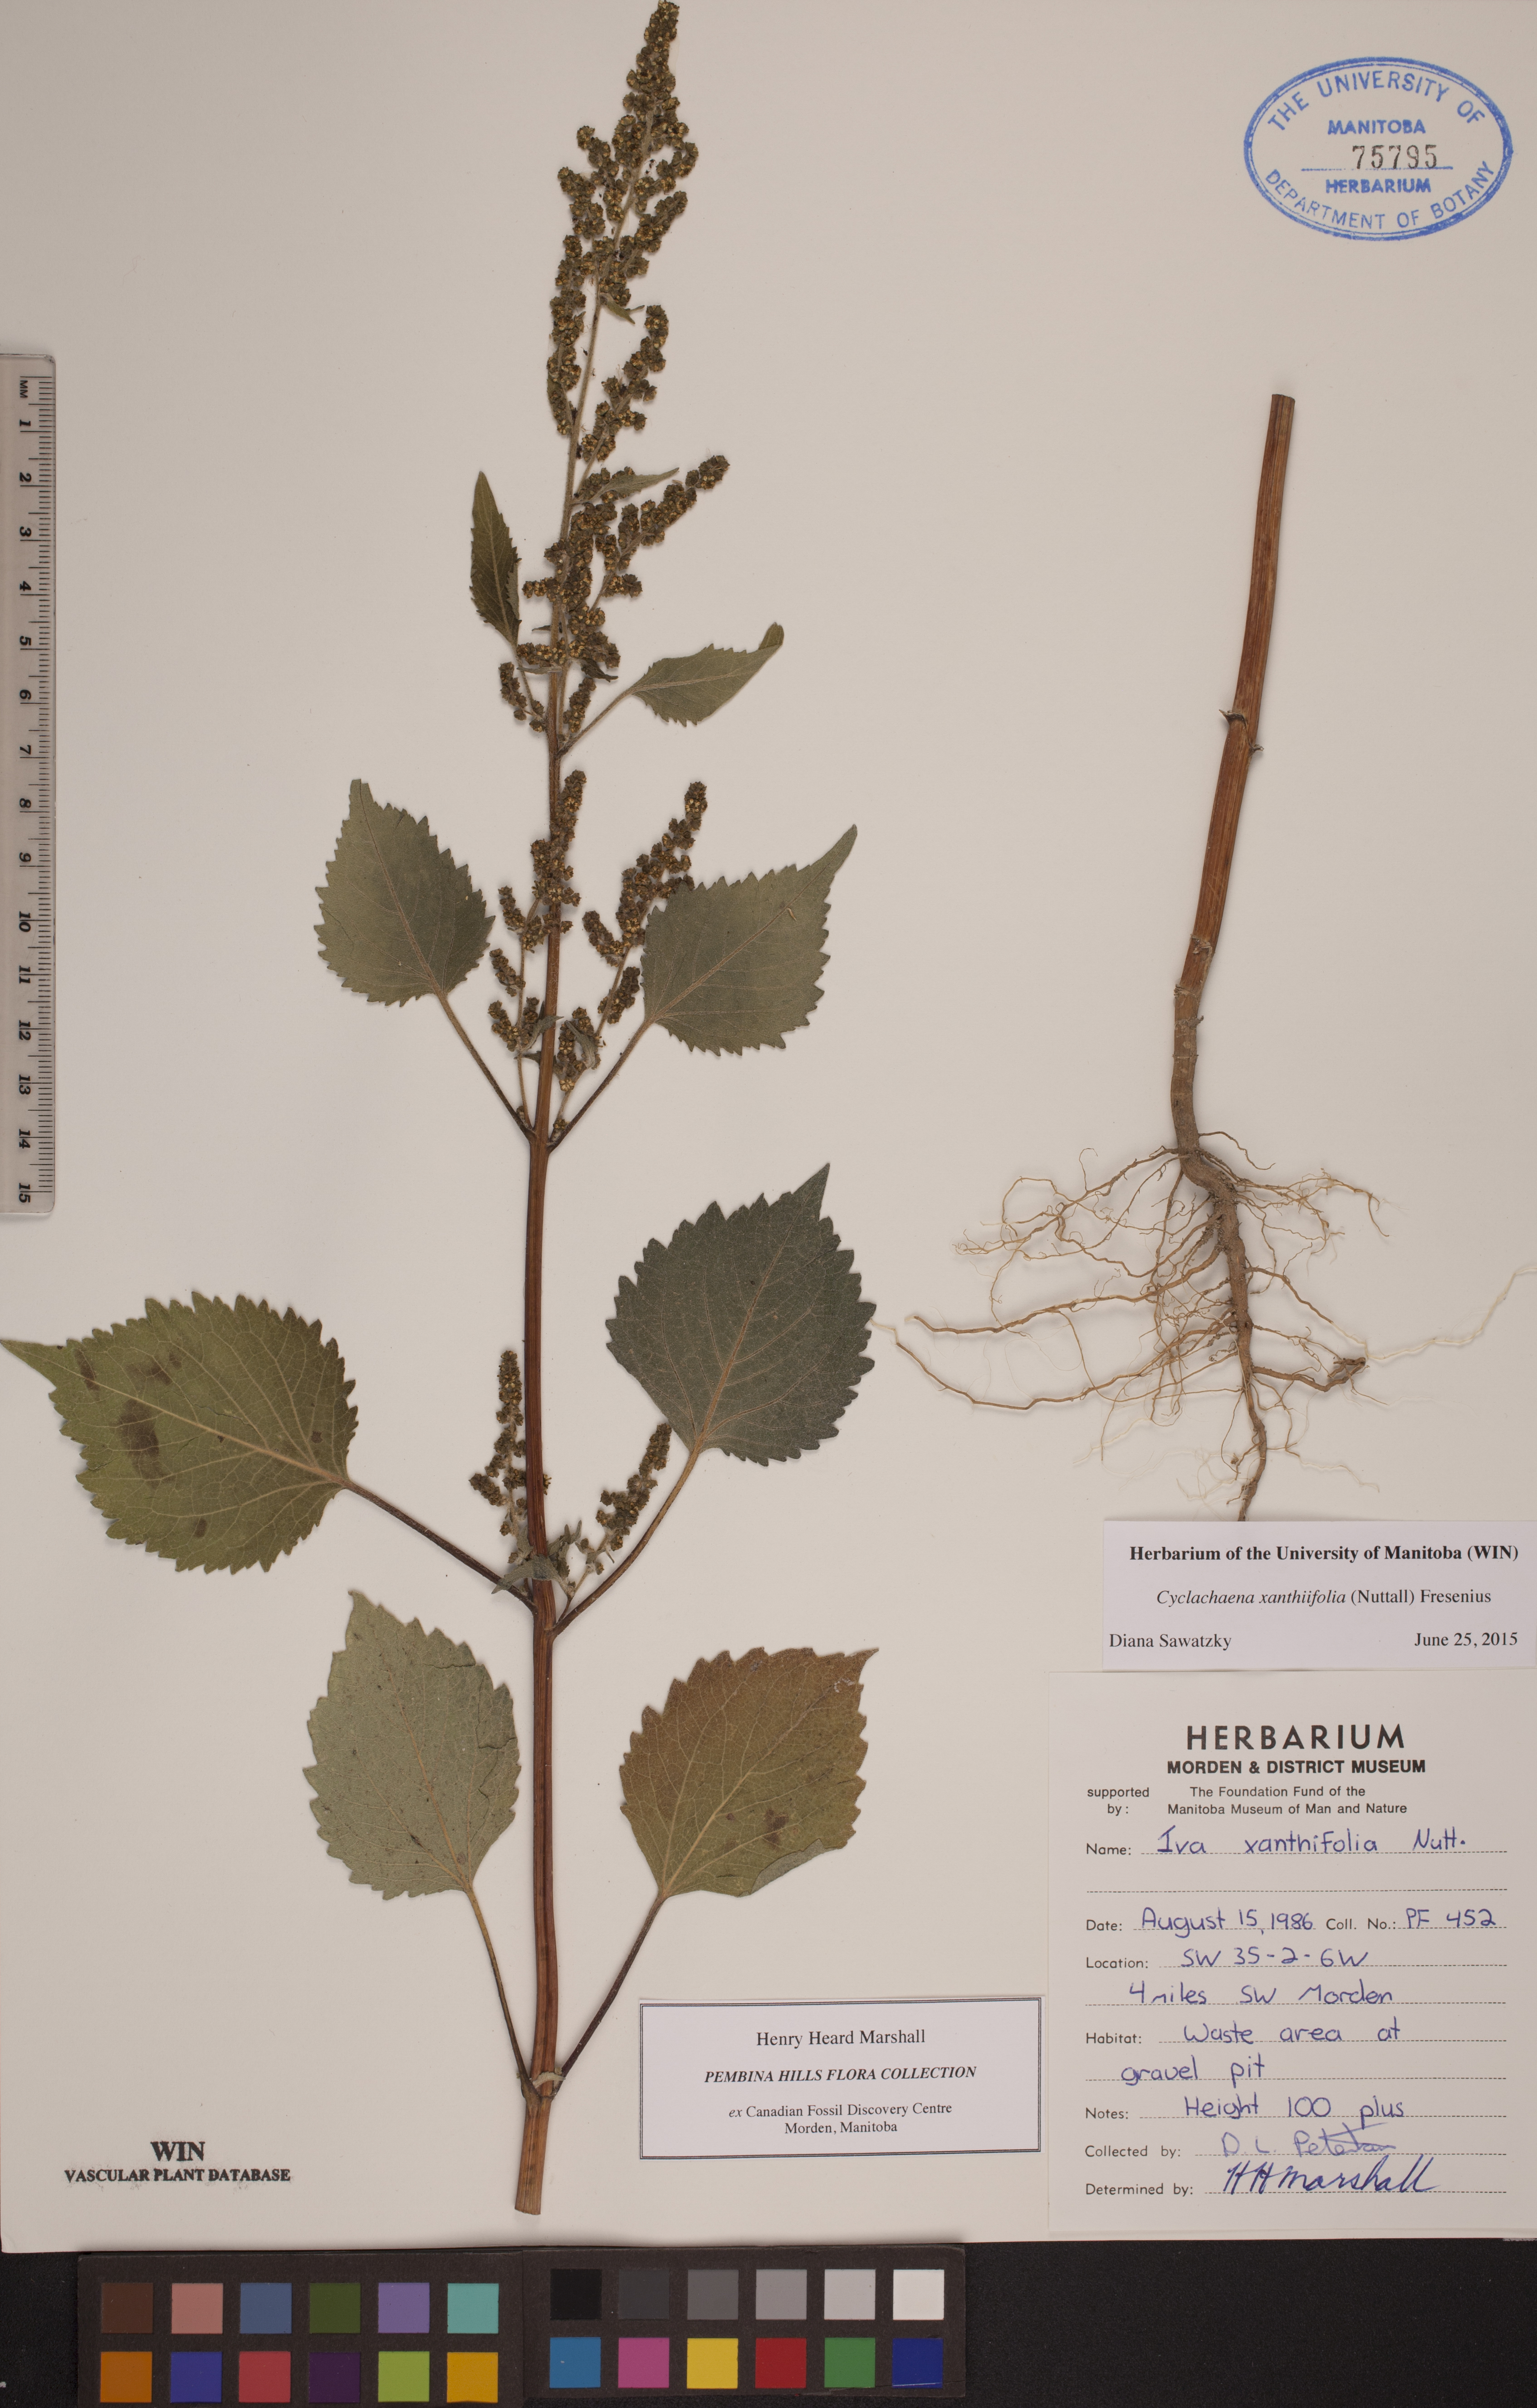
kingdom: Plantae
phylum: Tracheophyta
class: Magnoliopsida
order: Asterales
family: Asteraceae
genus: Cyclachaena
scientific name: Cyclachaena xanthiifolia
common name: Giant sumpweed
